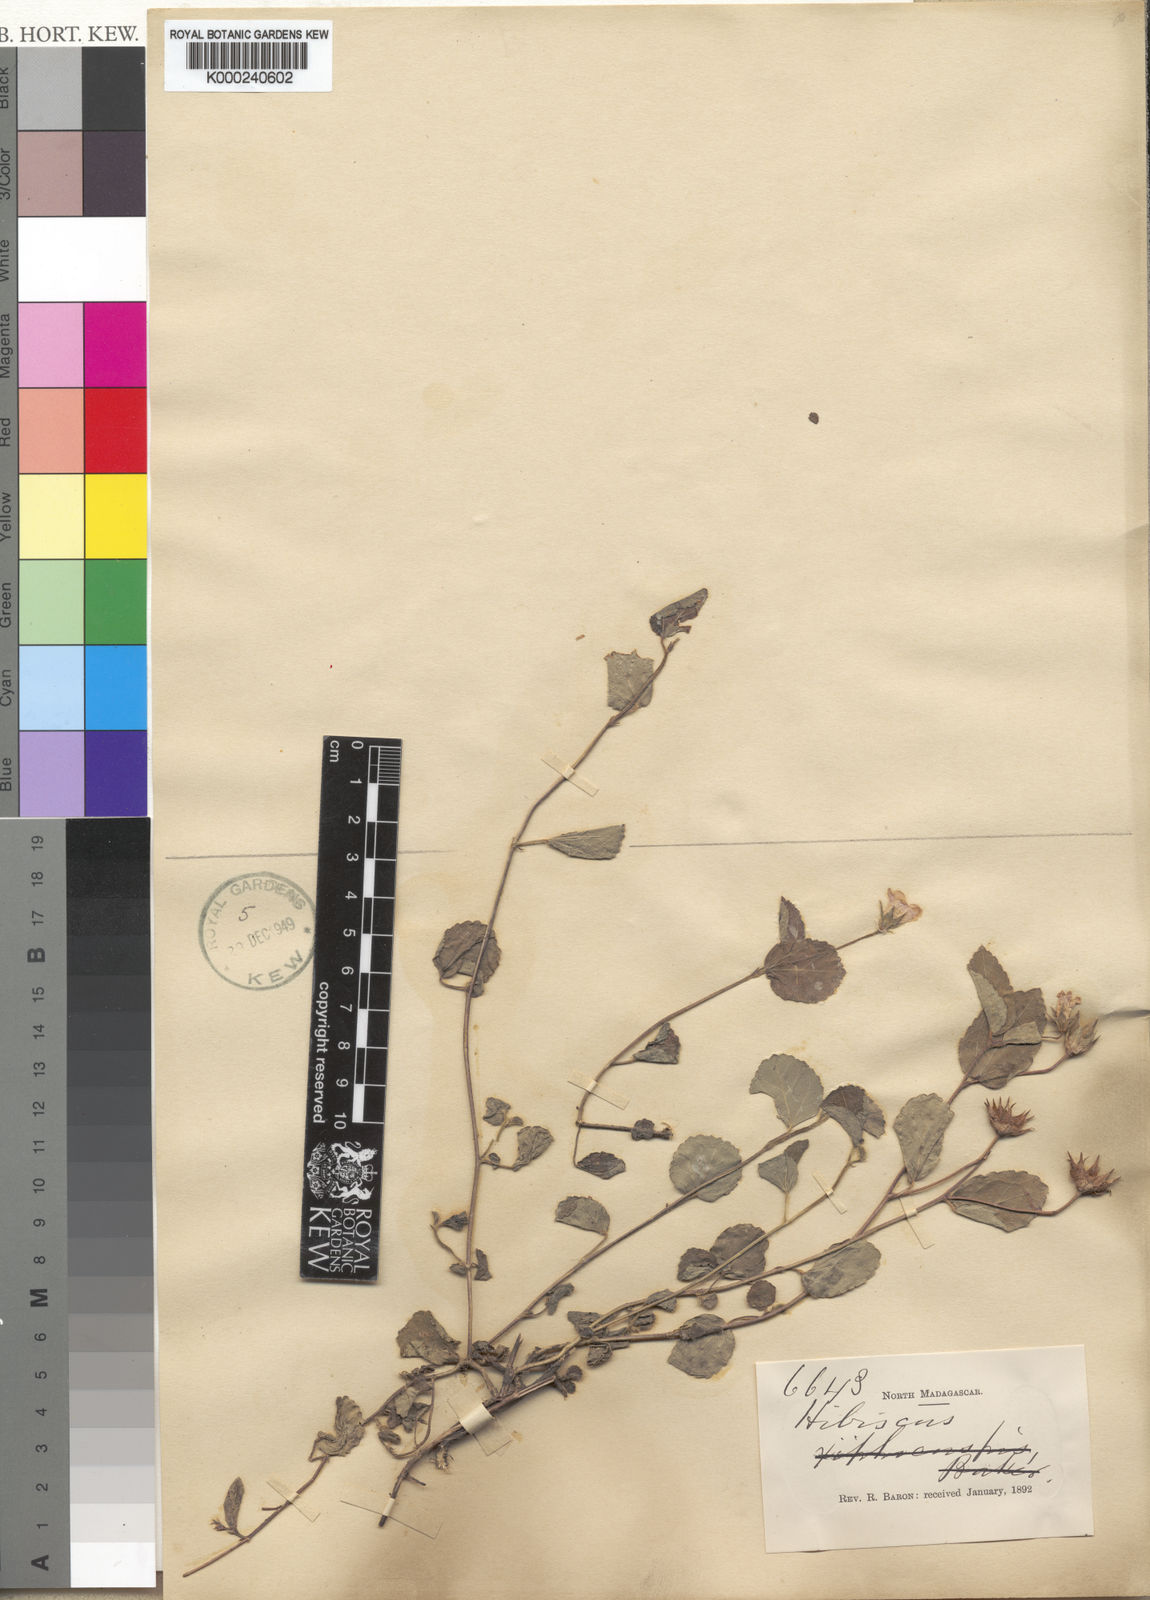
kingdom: Plantae
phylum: Tracheophyta
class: Magnoliopsida
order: Malvales
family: Malvaceae
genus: Hibiscus
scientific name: Hibiscus caerulescens
